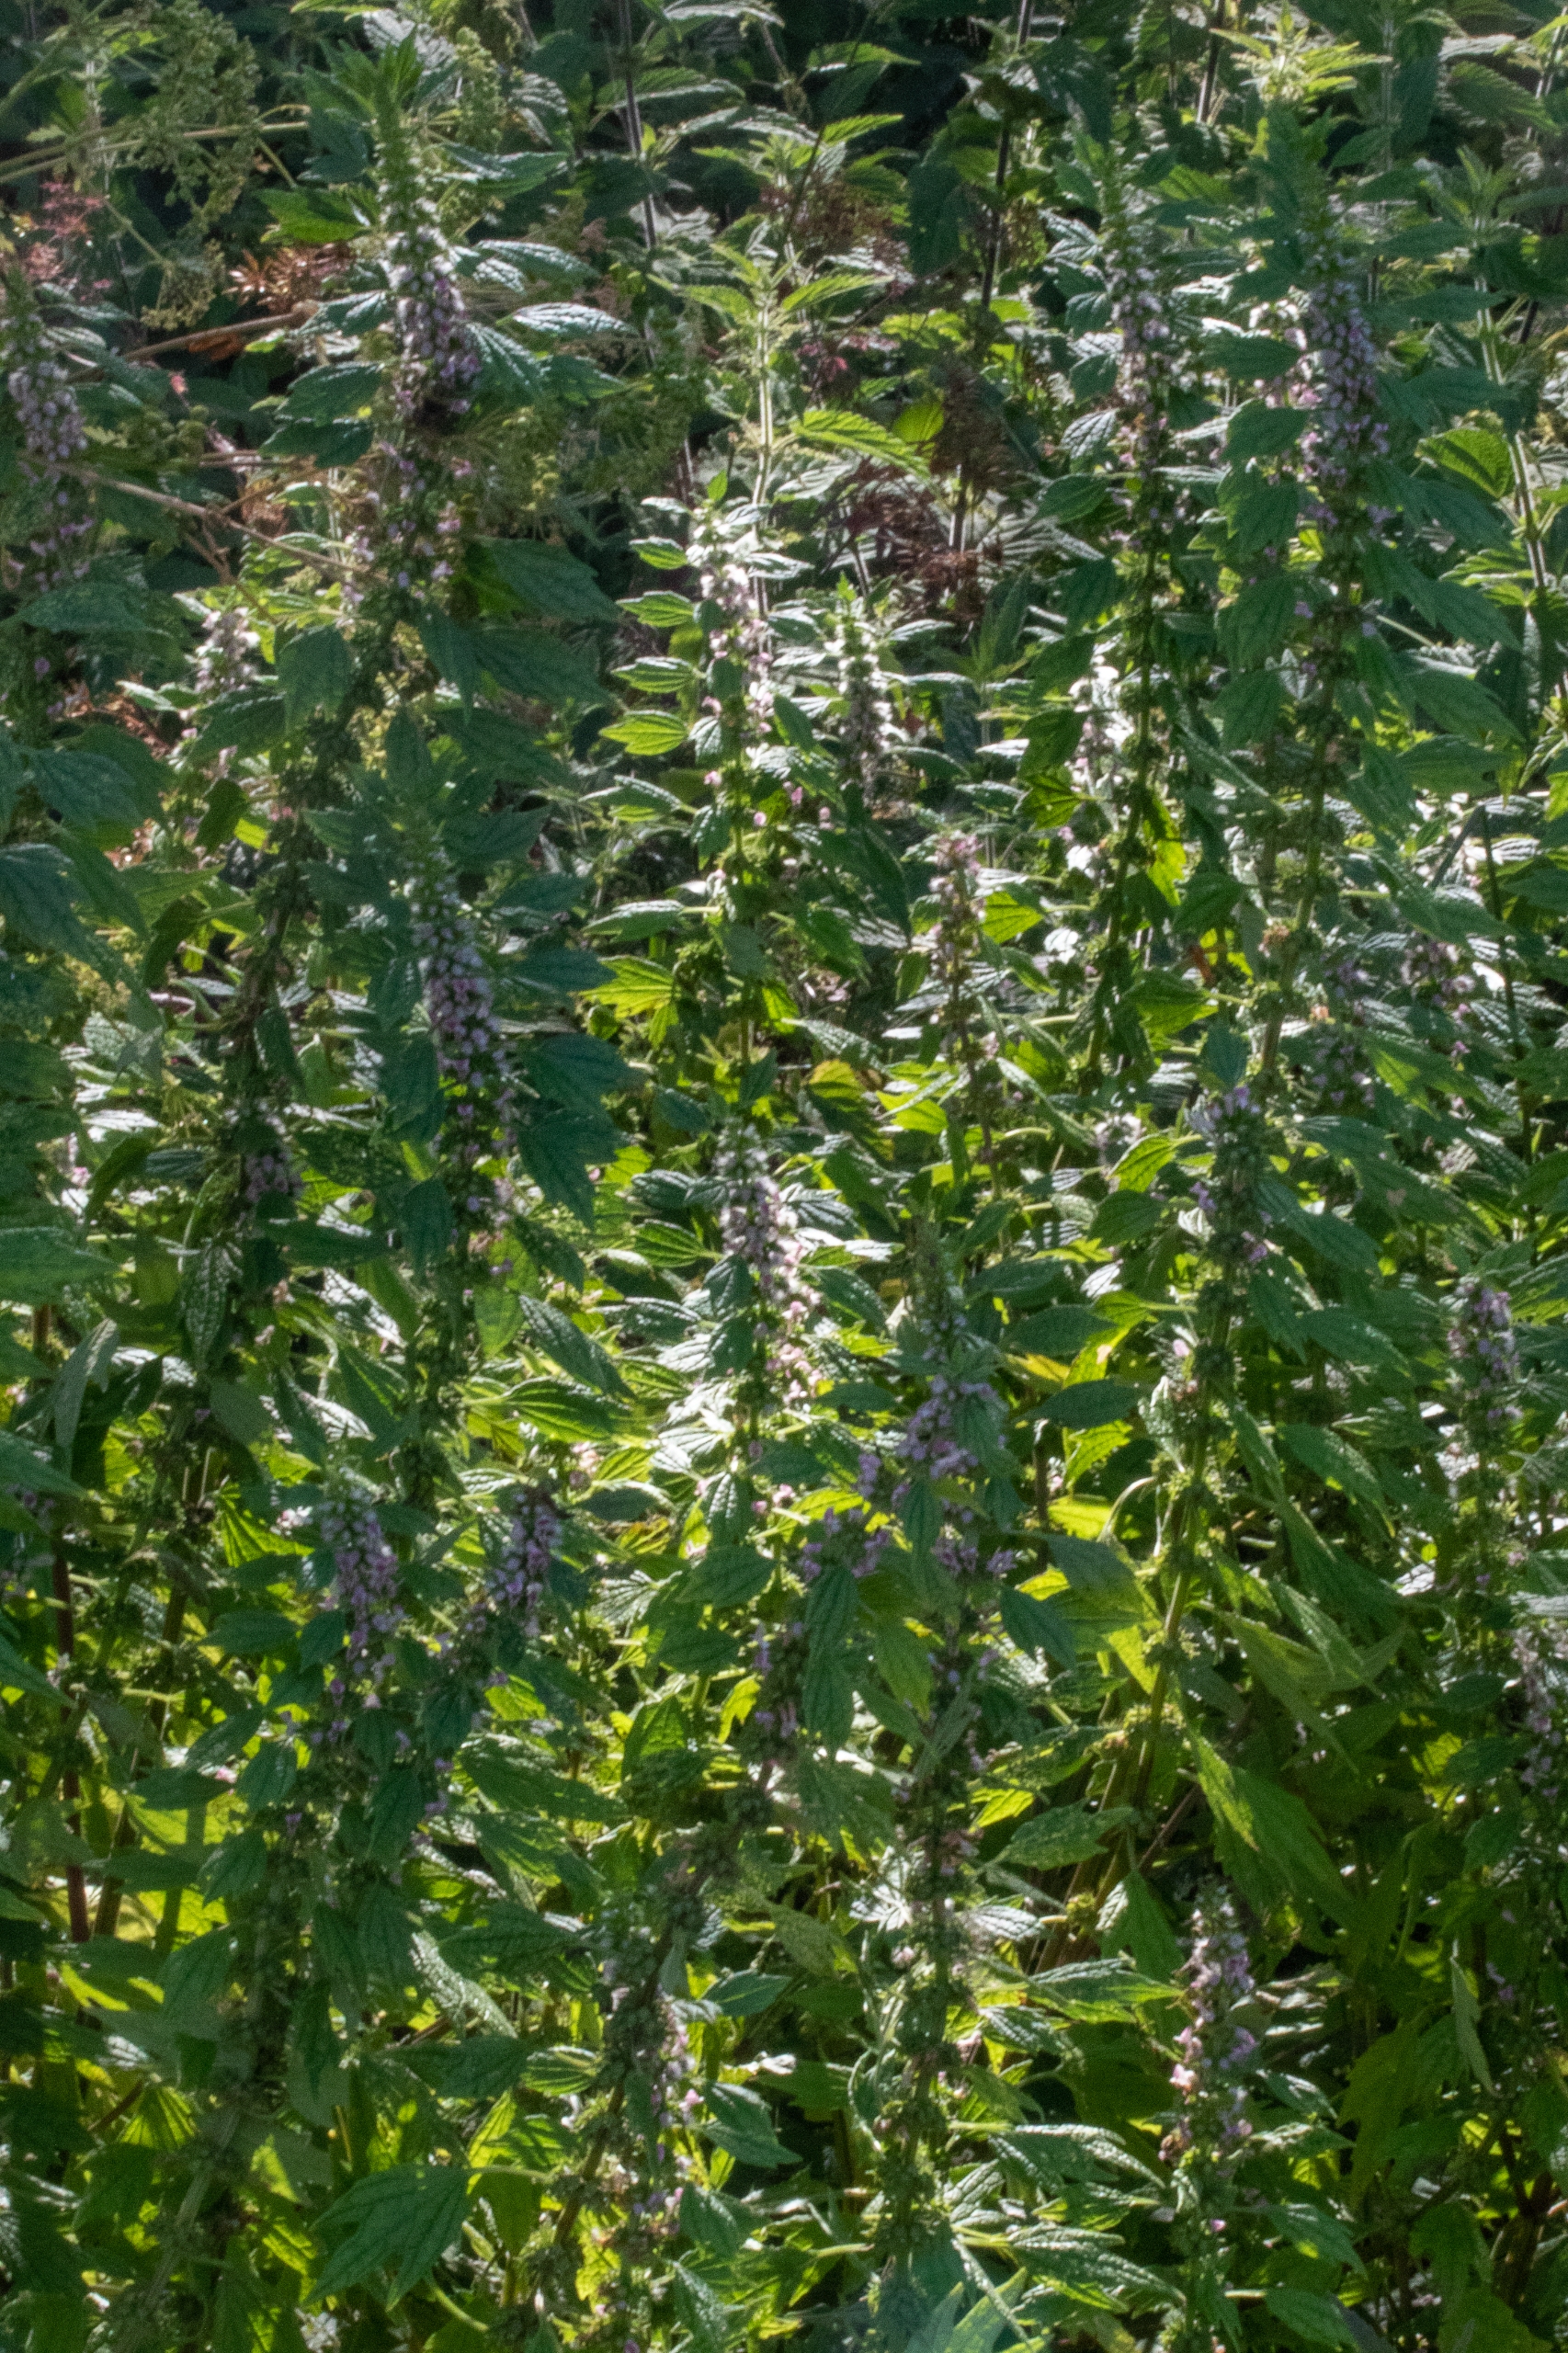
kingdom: Plantae
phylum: Tracheophyta
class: Magnoliopsida
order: Lamiales
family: Lamiaceae
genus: Leonurus
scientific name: Leonurus cardiaca
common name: Hjertespand
